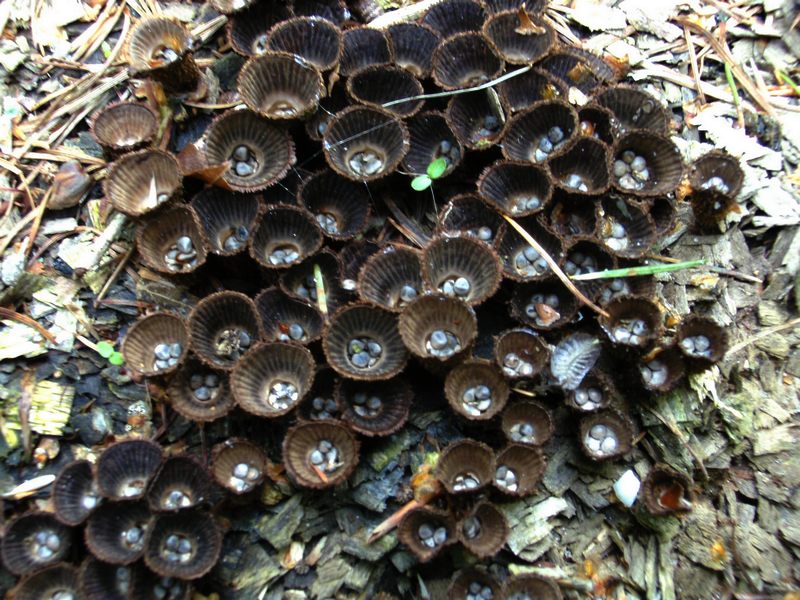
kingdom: Fungi
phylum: Basidiomycota
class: Agaricomycetes
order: Agaricales
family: Agaricaceae
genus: Cyathus
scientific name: Cyathus striatus
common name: stribet redesvamp
